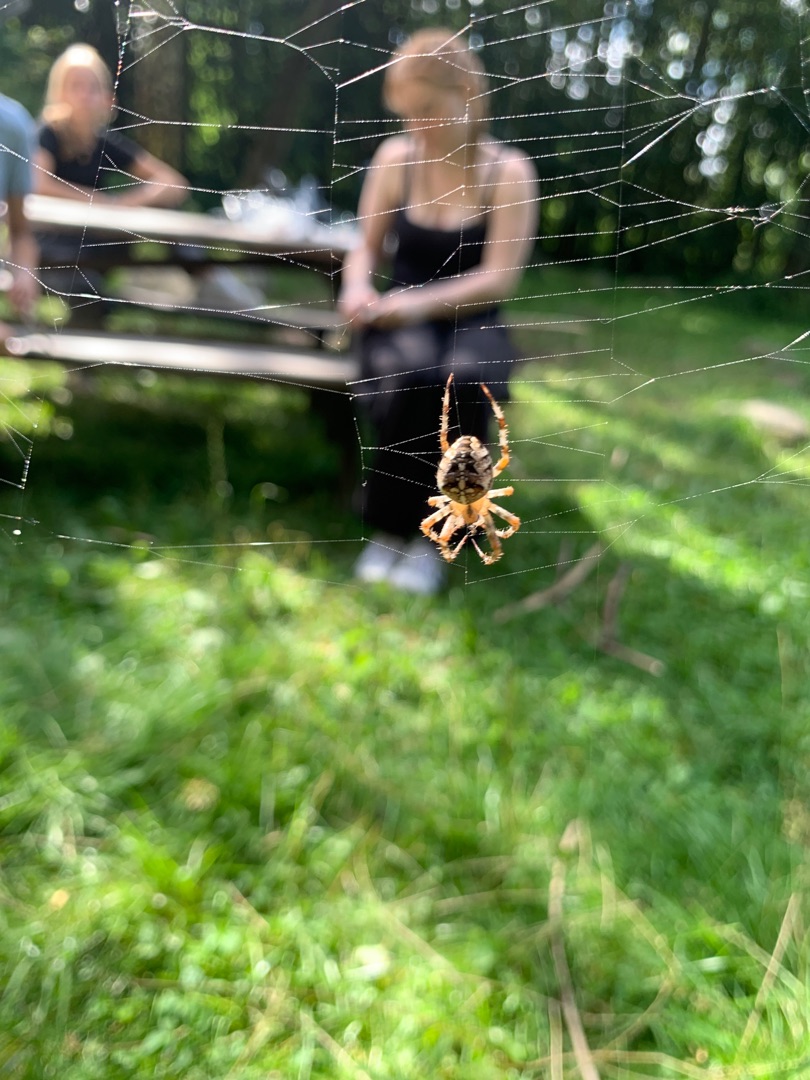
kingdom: Animalia
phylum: Arthropoda
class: Arachnida
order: Araneae
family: Araneidae
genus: Araneus
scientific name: Araneus diadematus
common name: Korsedderkop
